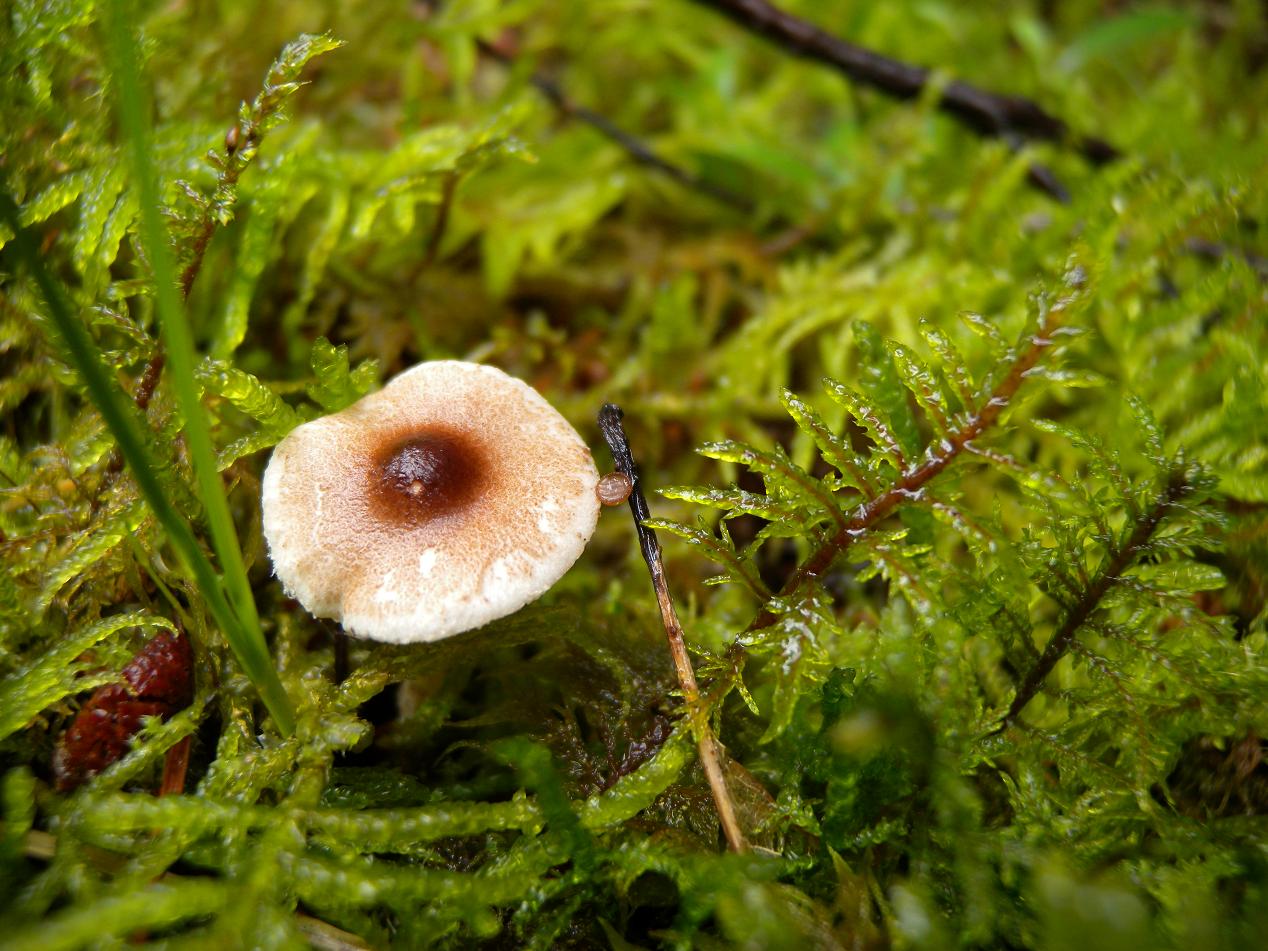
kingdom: Fungi
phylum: Basidiomycota
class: Agaricomycetes
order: Agaricales
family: Agaricaceae
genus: Lepiota
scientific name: Lepiota echinella
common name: finskællet parasolhat
